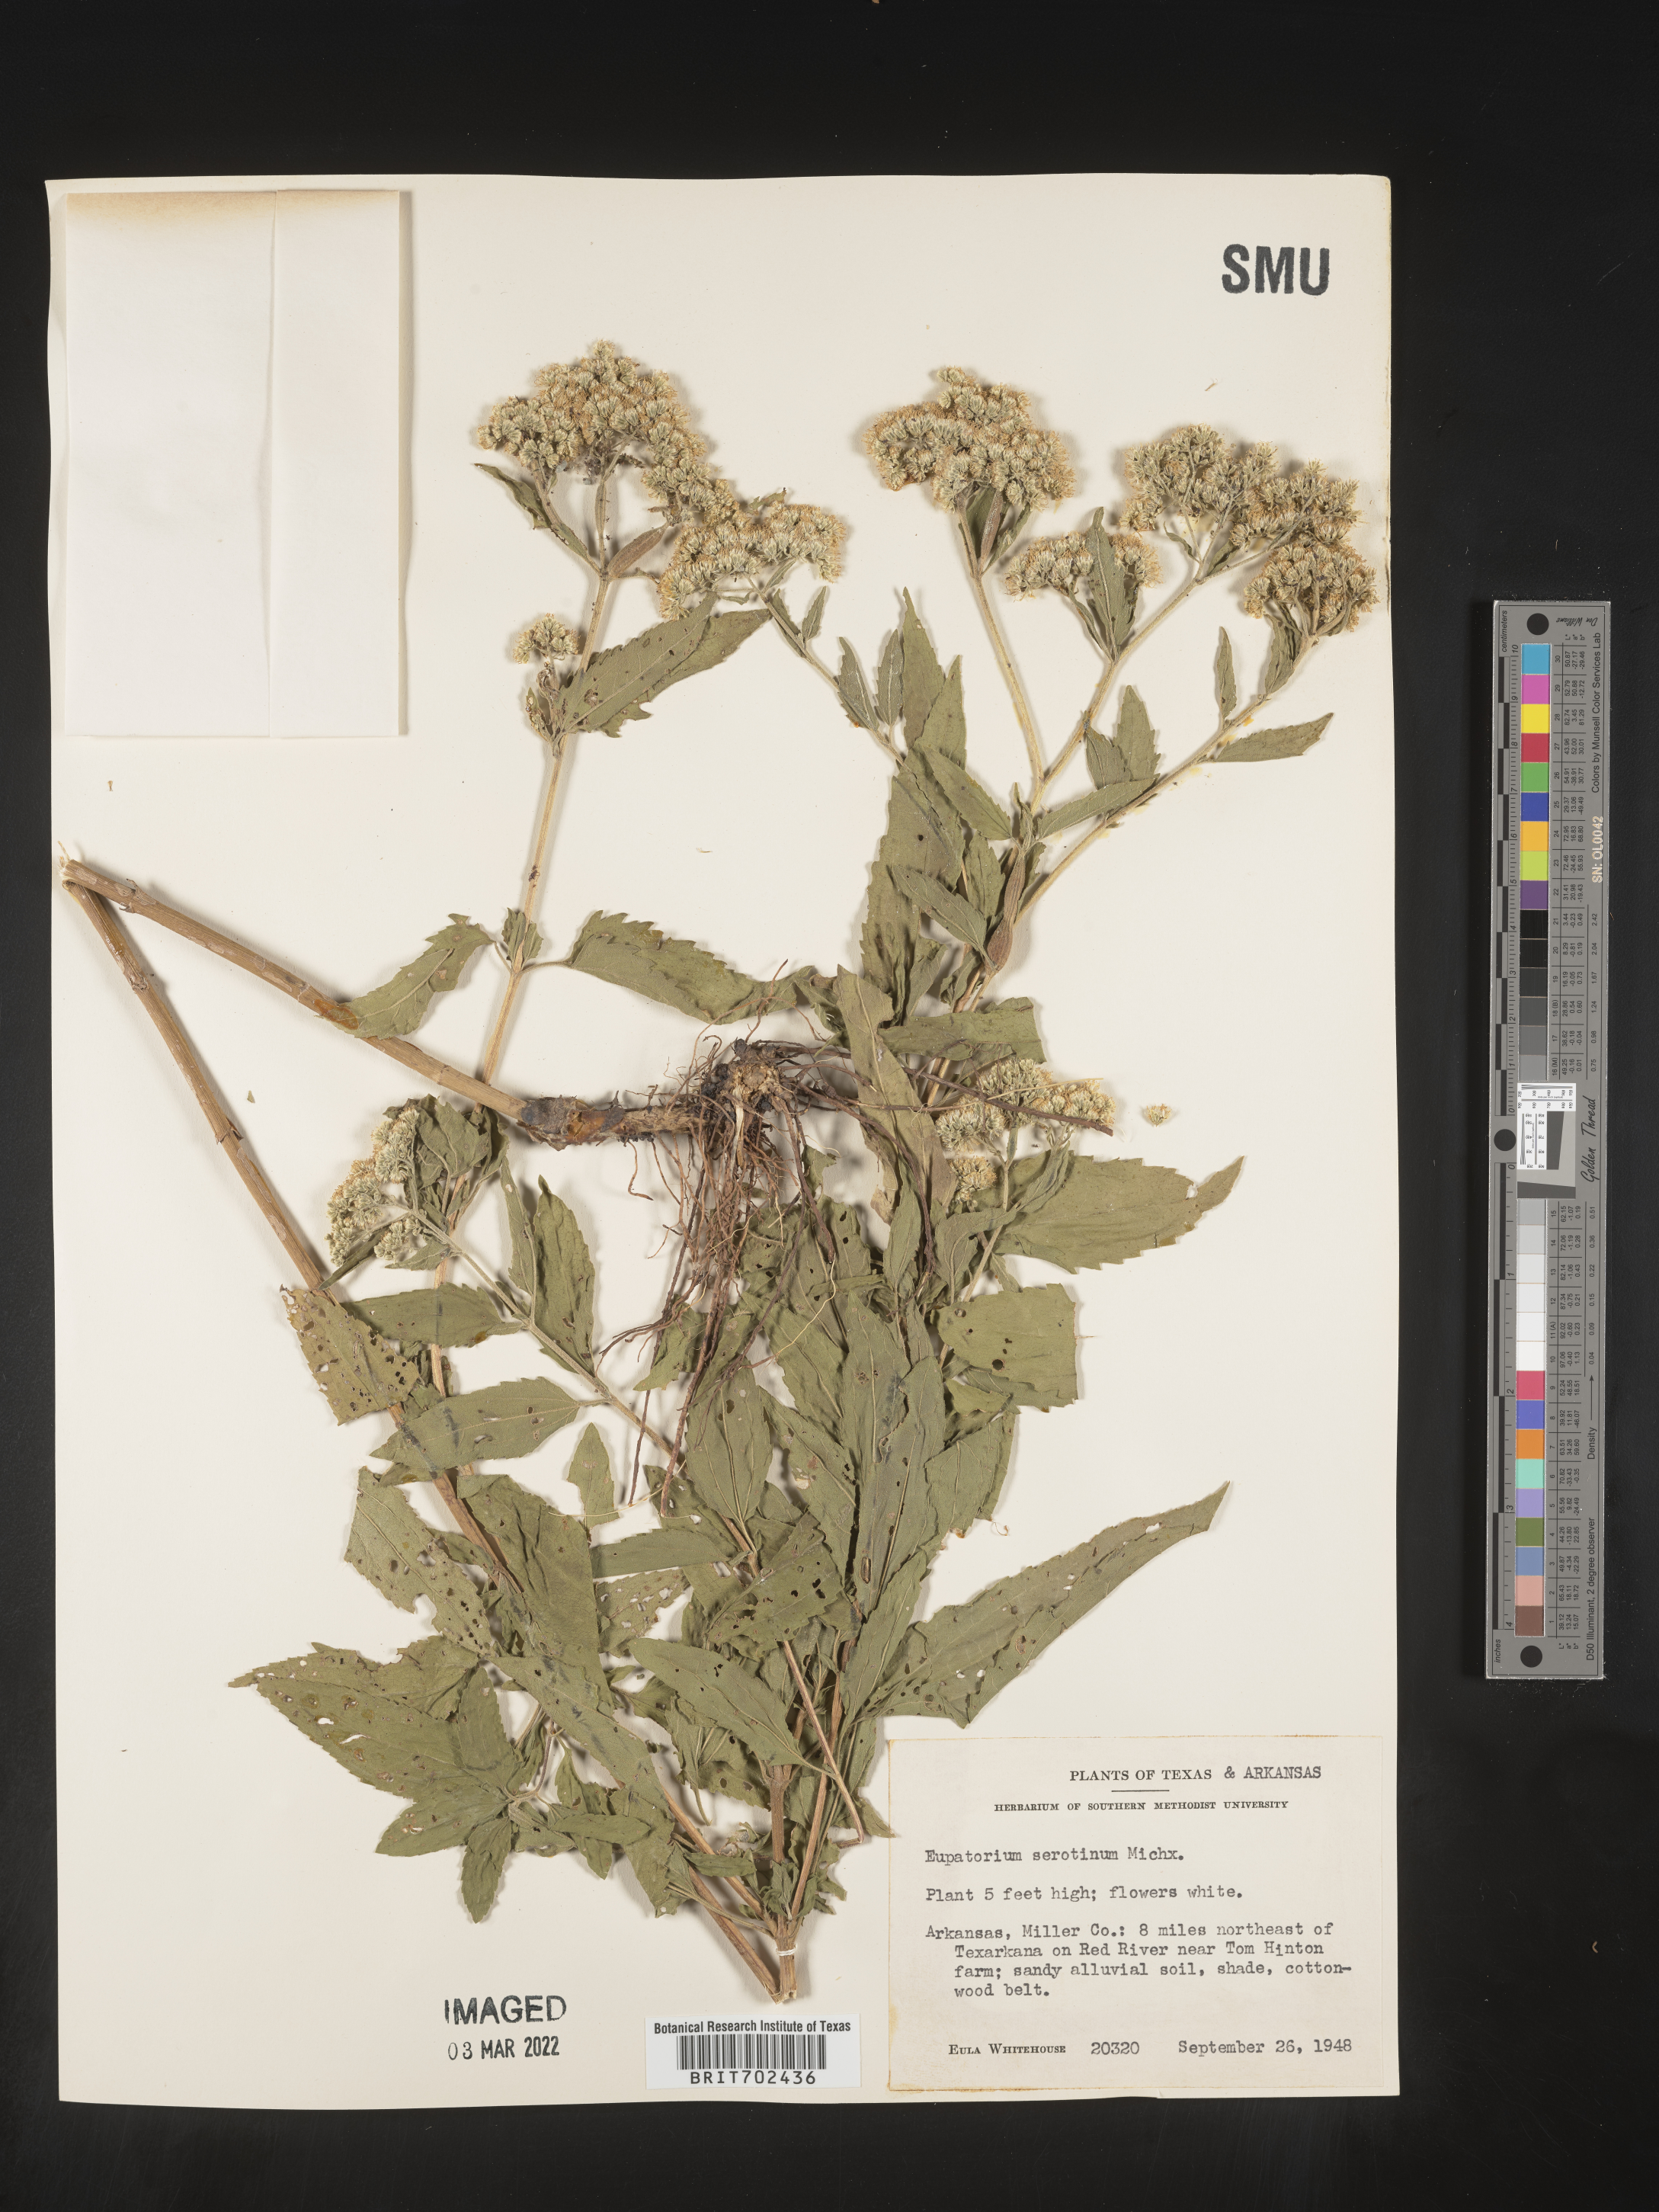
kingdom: Plantae
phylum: Tracheophyta
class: Magnoliopsida
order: Asterales
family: Asteraceae
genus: Eupatorium
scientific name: Eupatorium serotinum
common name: Late boneset
